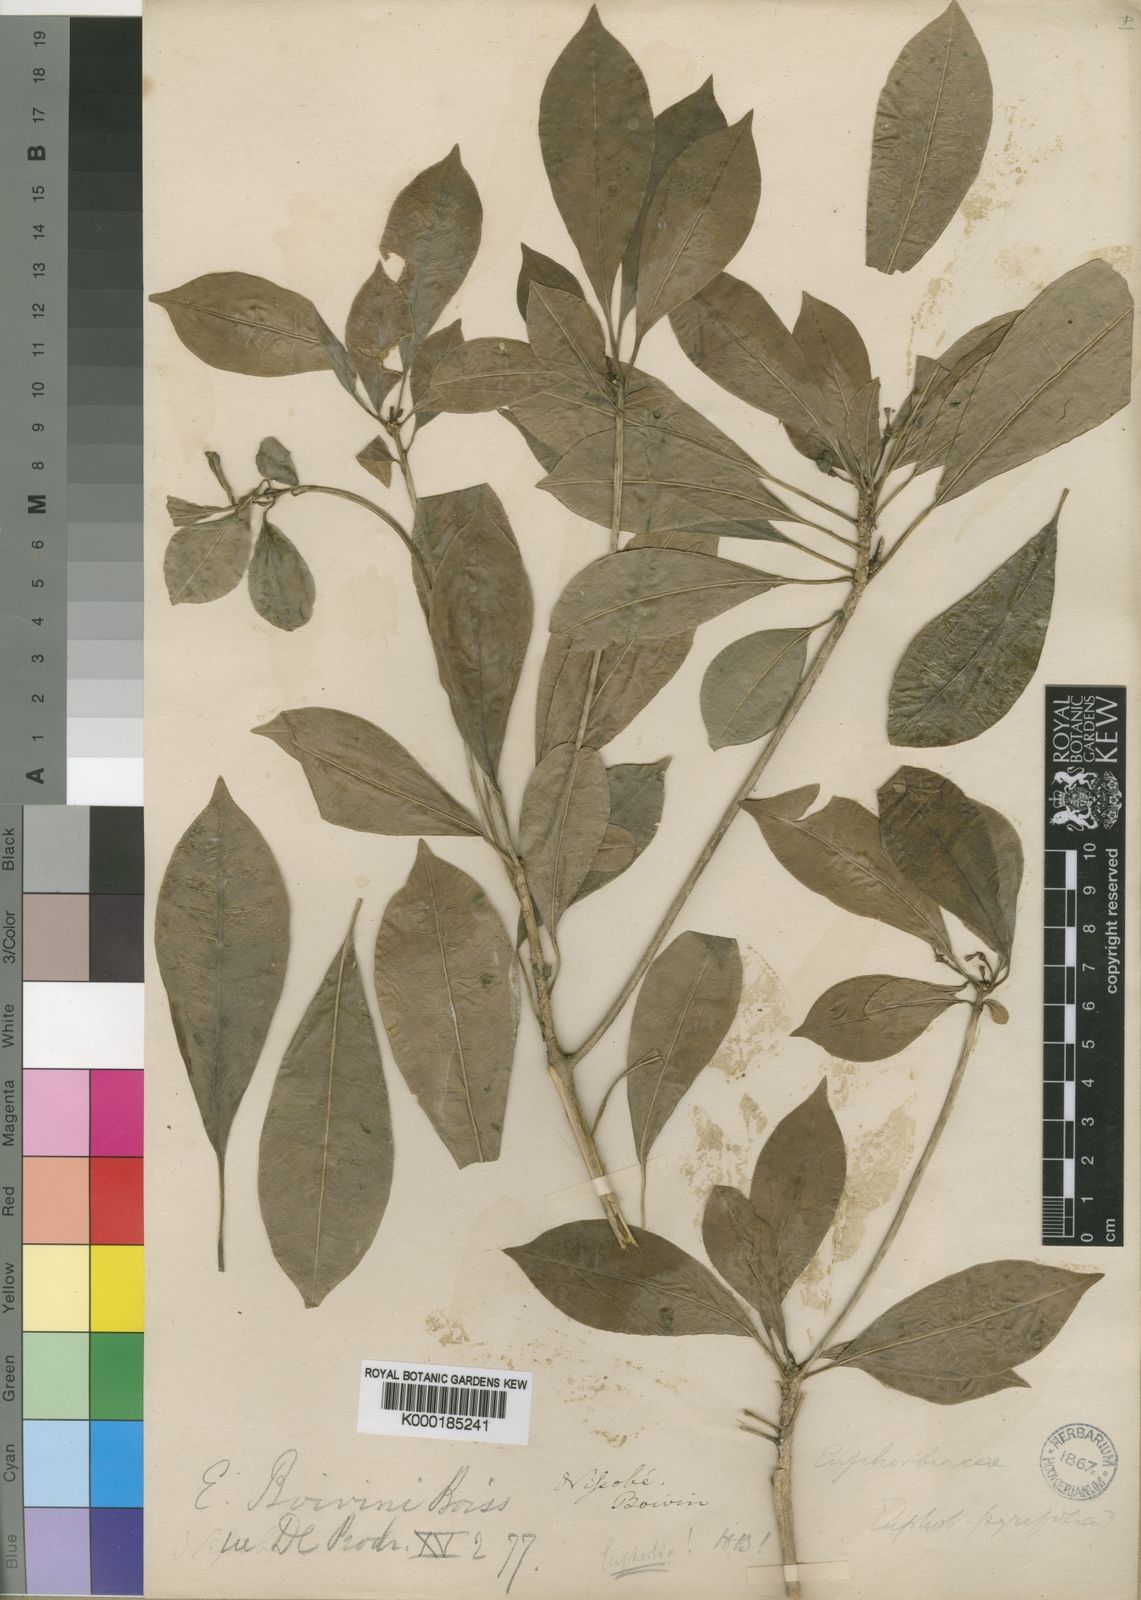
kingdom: Plantae
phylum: Tracheophyta
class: Magnoliopsida
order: Malpighiales
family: Euphorbiaceae
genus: Euphorbia
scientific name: Euphorbia boivinii
